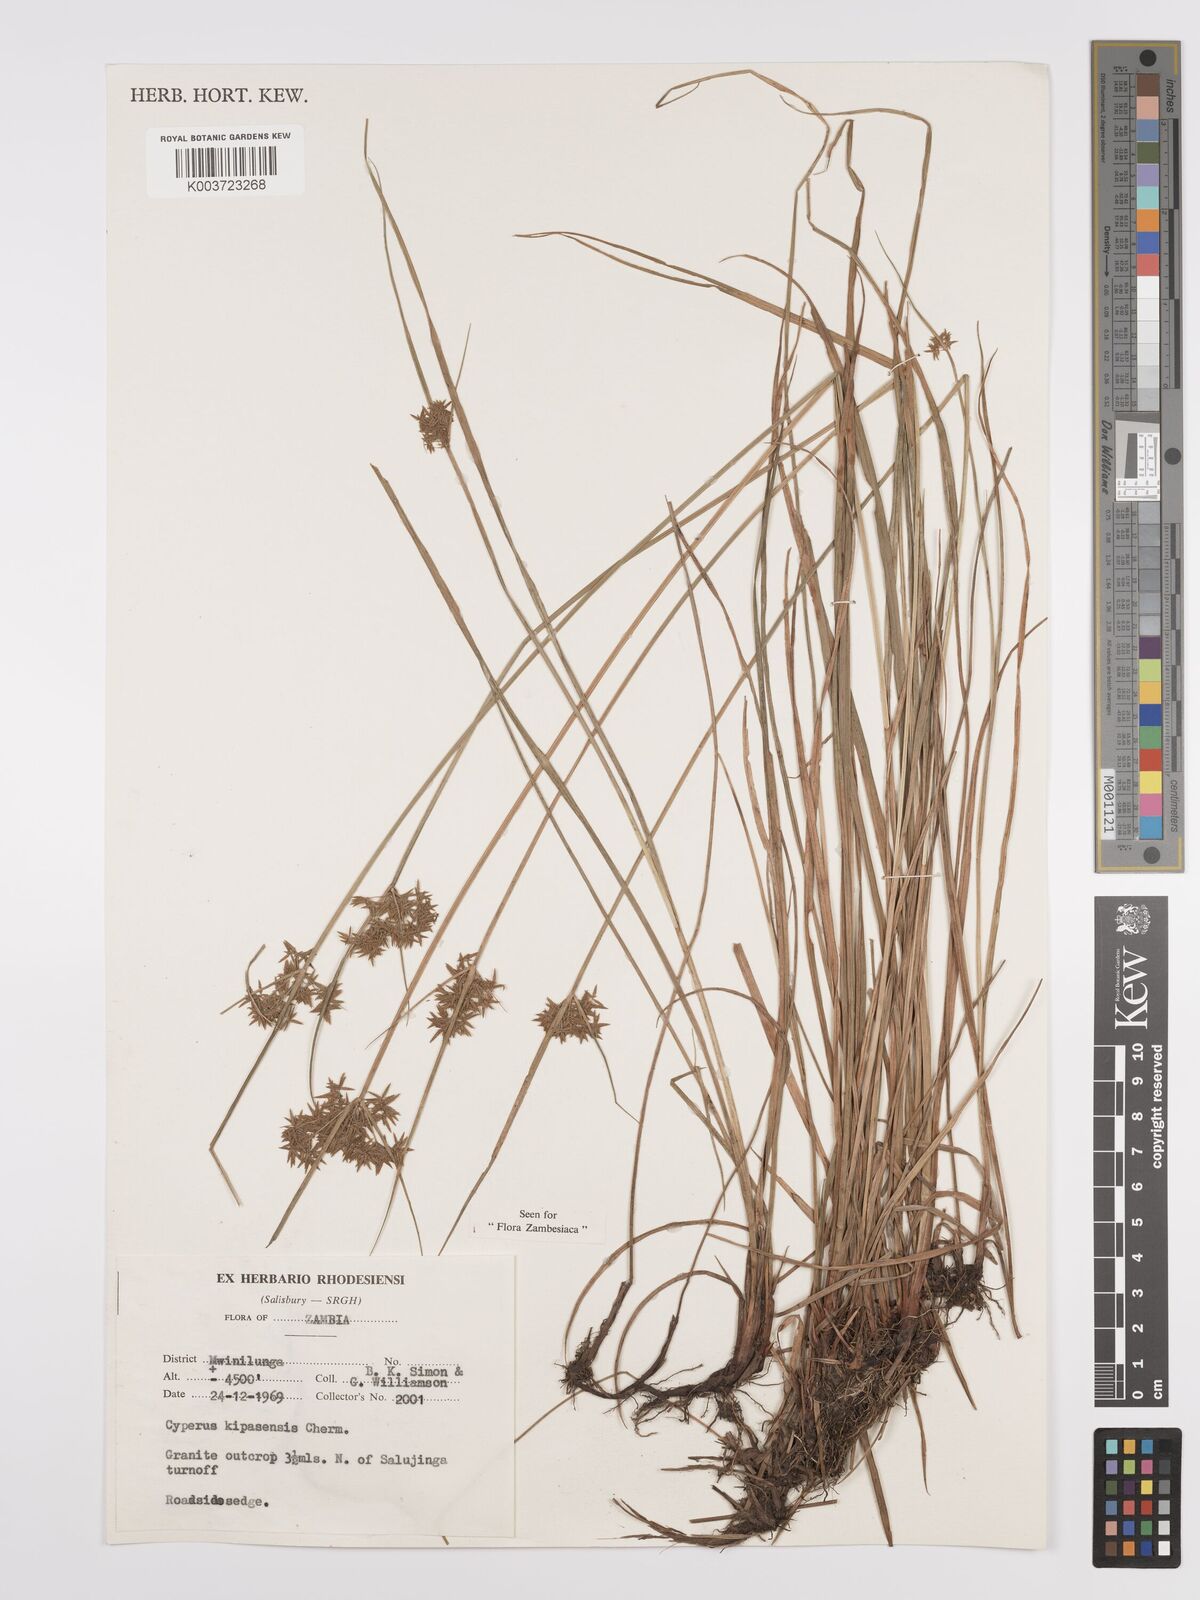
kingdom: Plantae
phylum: Tracheophyta
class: Liliopsida
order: Poales
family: Cyperaceae
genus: Cyperus
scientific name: Cyperus kipasensis
